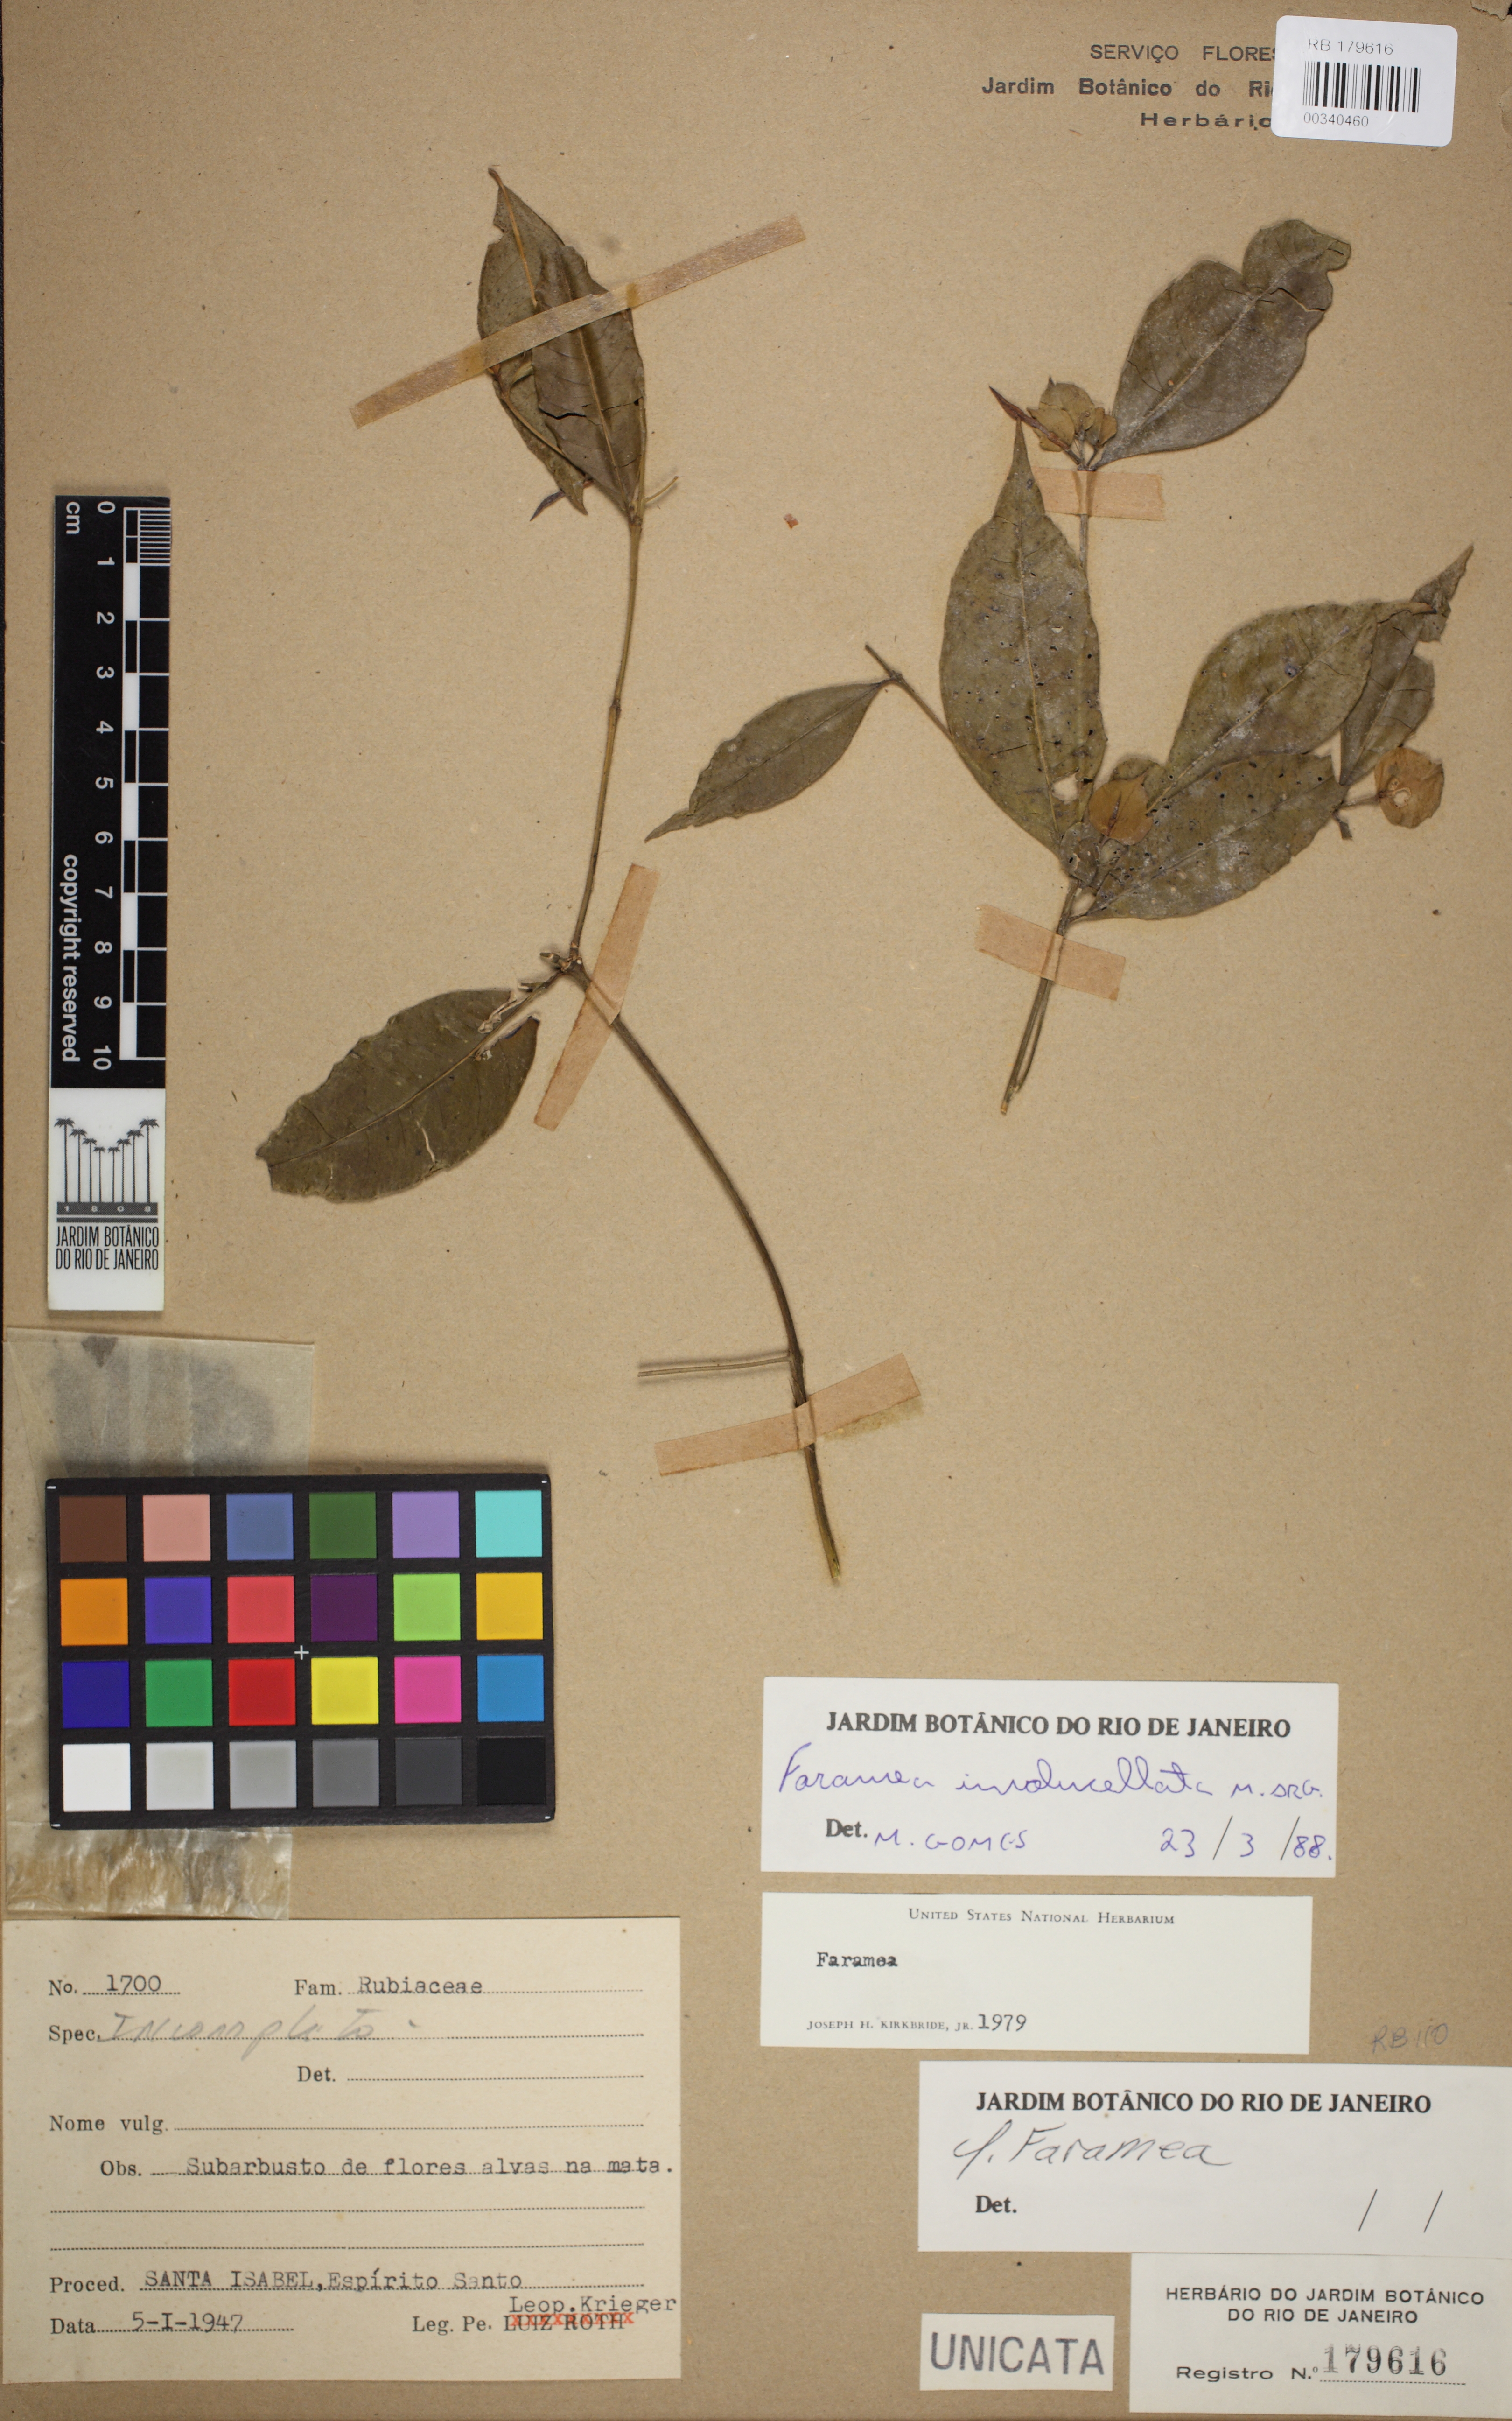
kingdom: Plantae
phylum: Tracheophyta
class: Magnoliopsida
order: Gentianales
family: Rubiaceae
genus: Faramea
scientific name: Faramea involucellata
